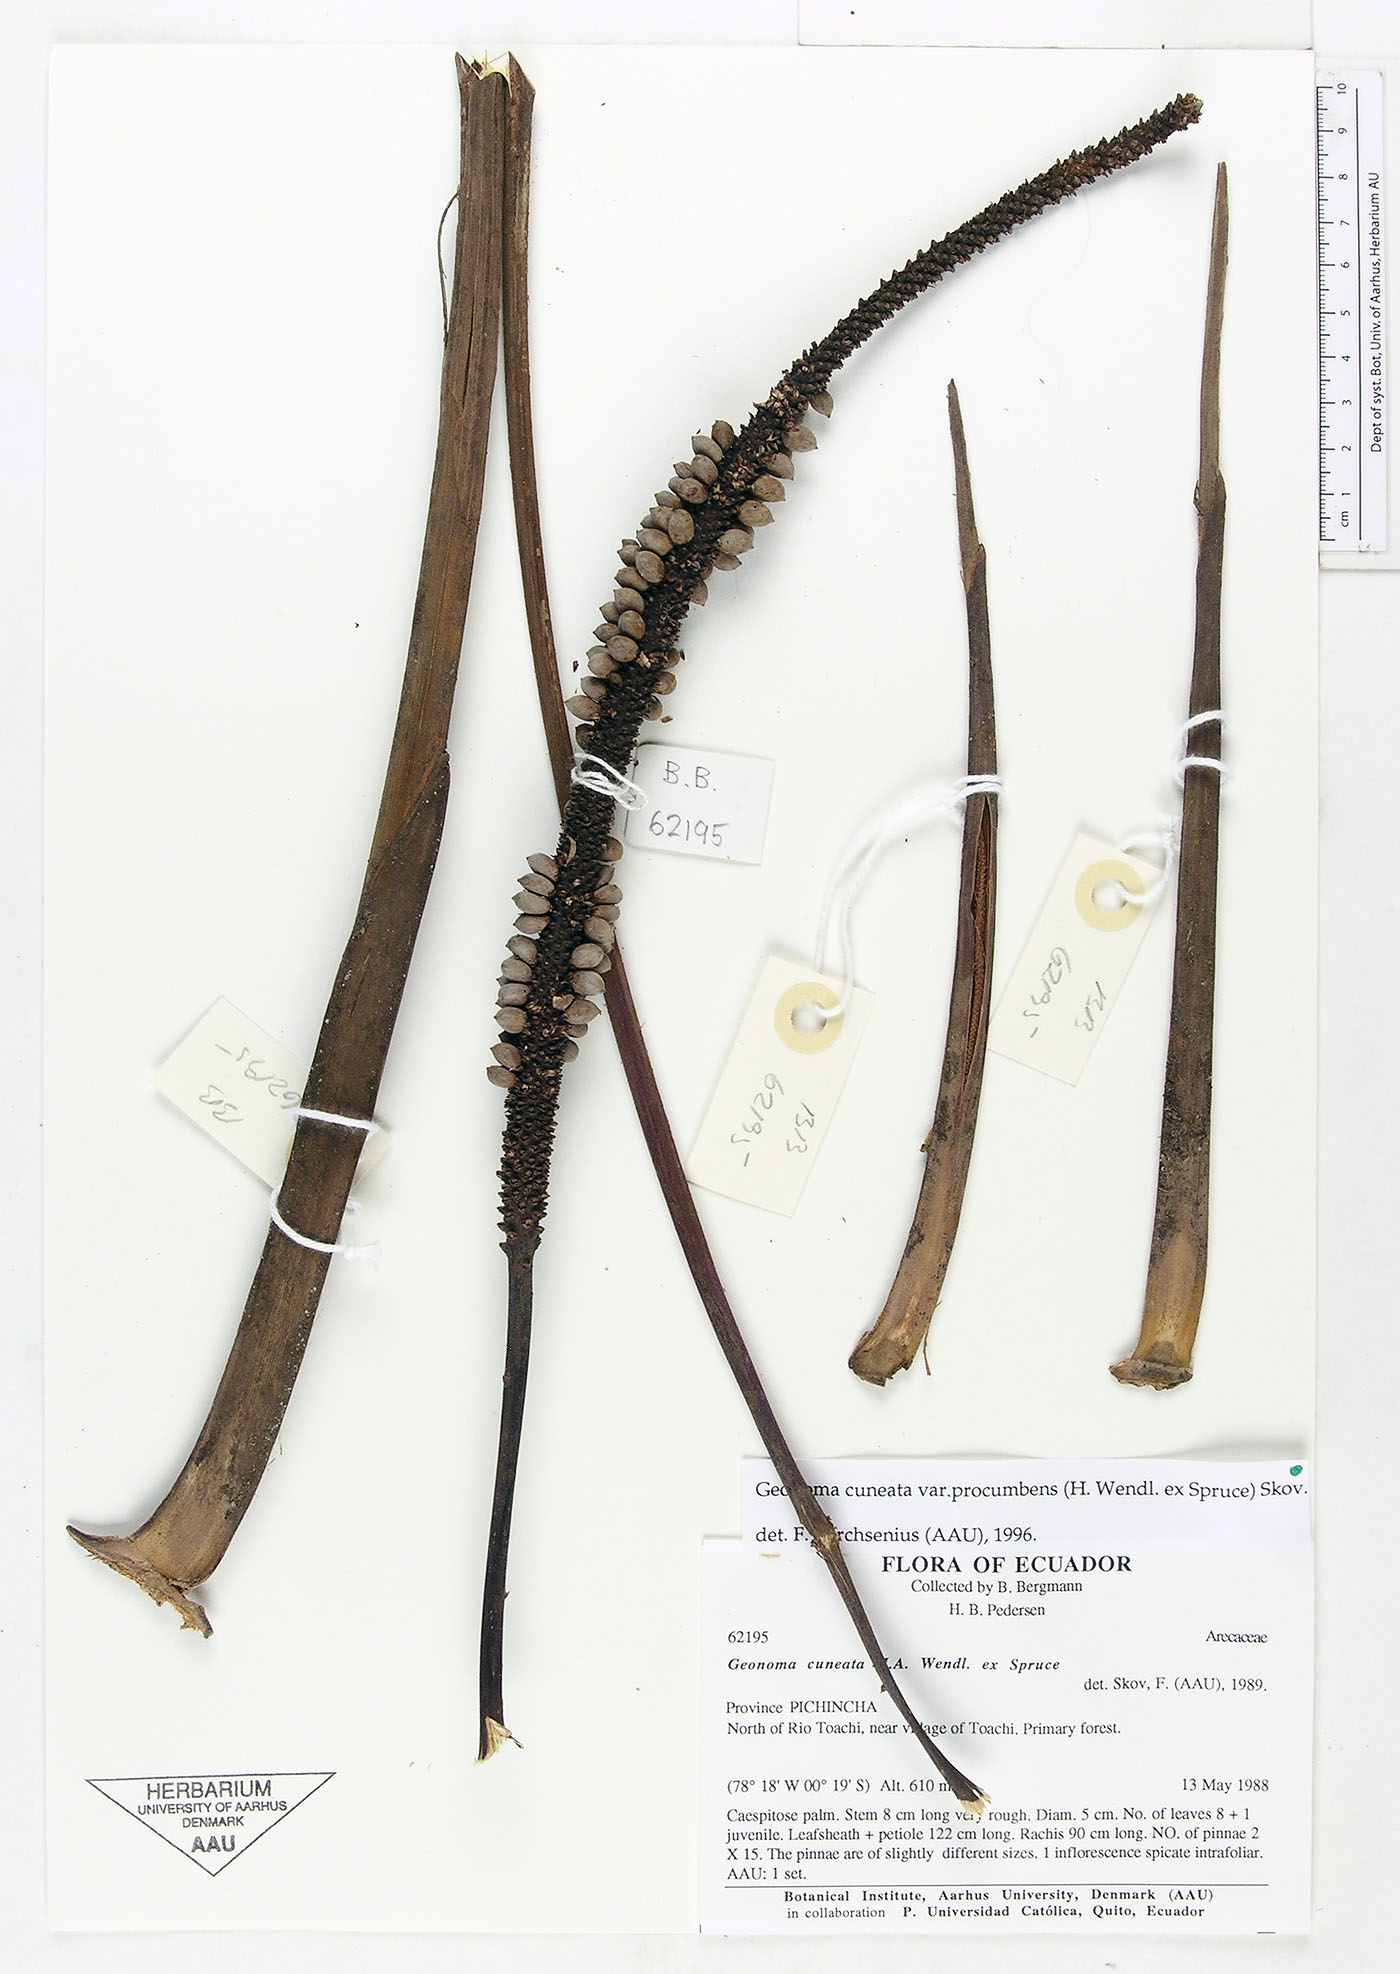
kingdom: Plantae
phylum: Tracheophyta
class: Liliopsida
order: Arecales
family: Arecaceae
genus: Geonoma
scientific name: Geonoma cuneata
